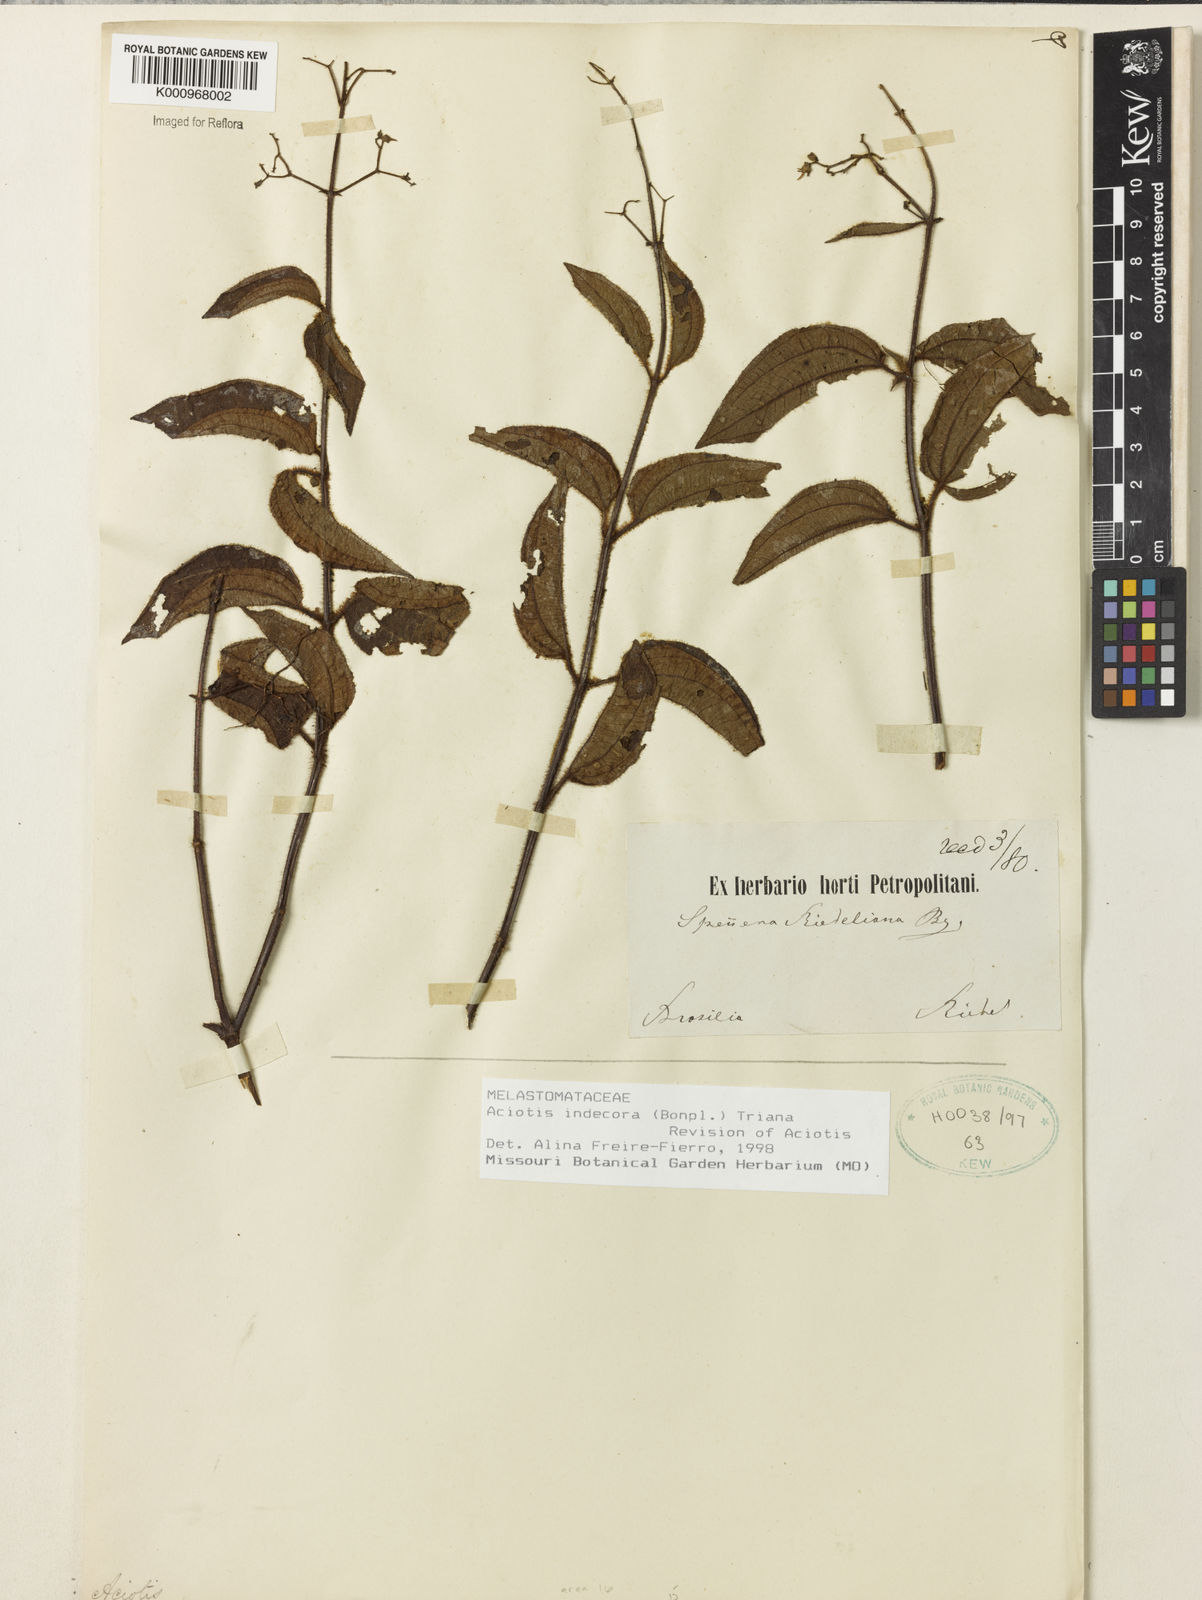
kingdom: Plantae
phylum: Tracheophyta
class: Magnoliopsida
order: Myrtales
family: Melastomataceae
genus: Aciotis
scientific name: Aciotis indecora
